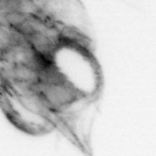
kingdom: Animalia
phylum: Arthropoda
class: Malacostraca
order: Decapoda
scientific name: Decapoda
